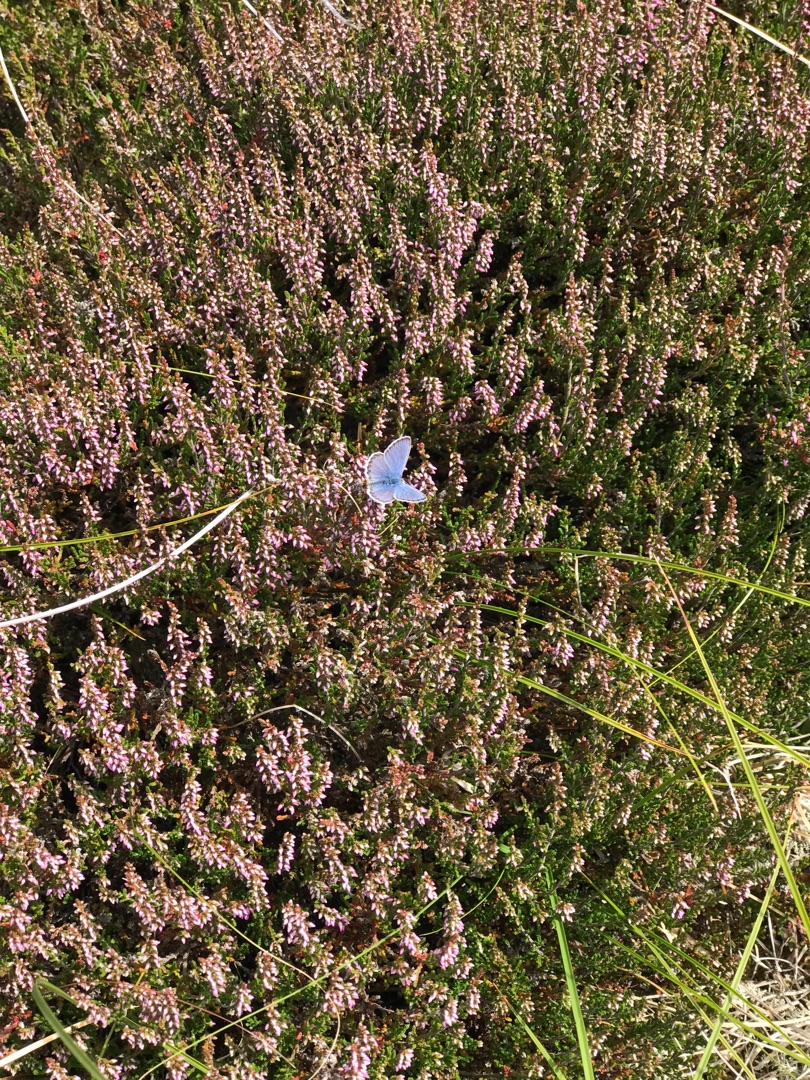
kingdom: Animalia
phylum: Arthropoda
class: Insecta
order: Lepidoptera
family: Lycaenidae
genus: Polyommatus
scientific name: Polyommatus icarus
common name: Almindelig blåfugl
